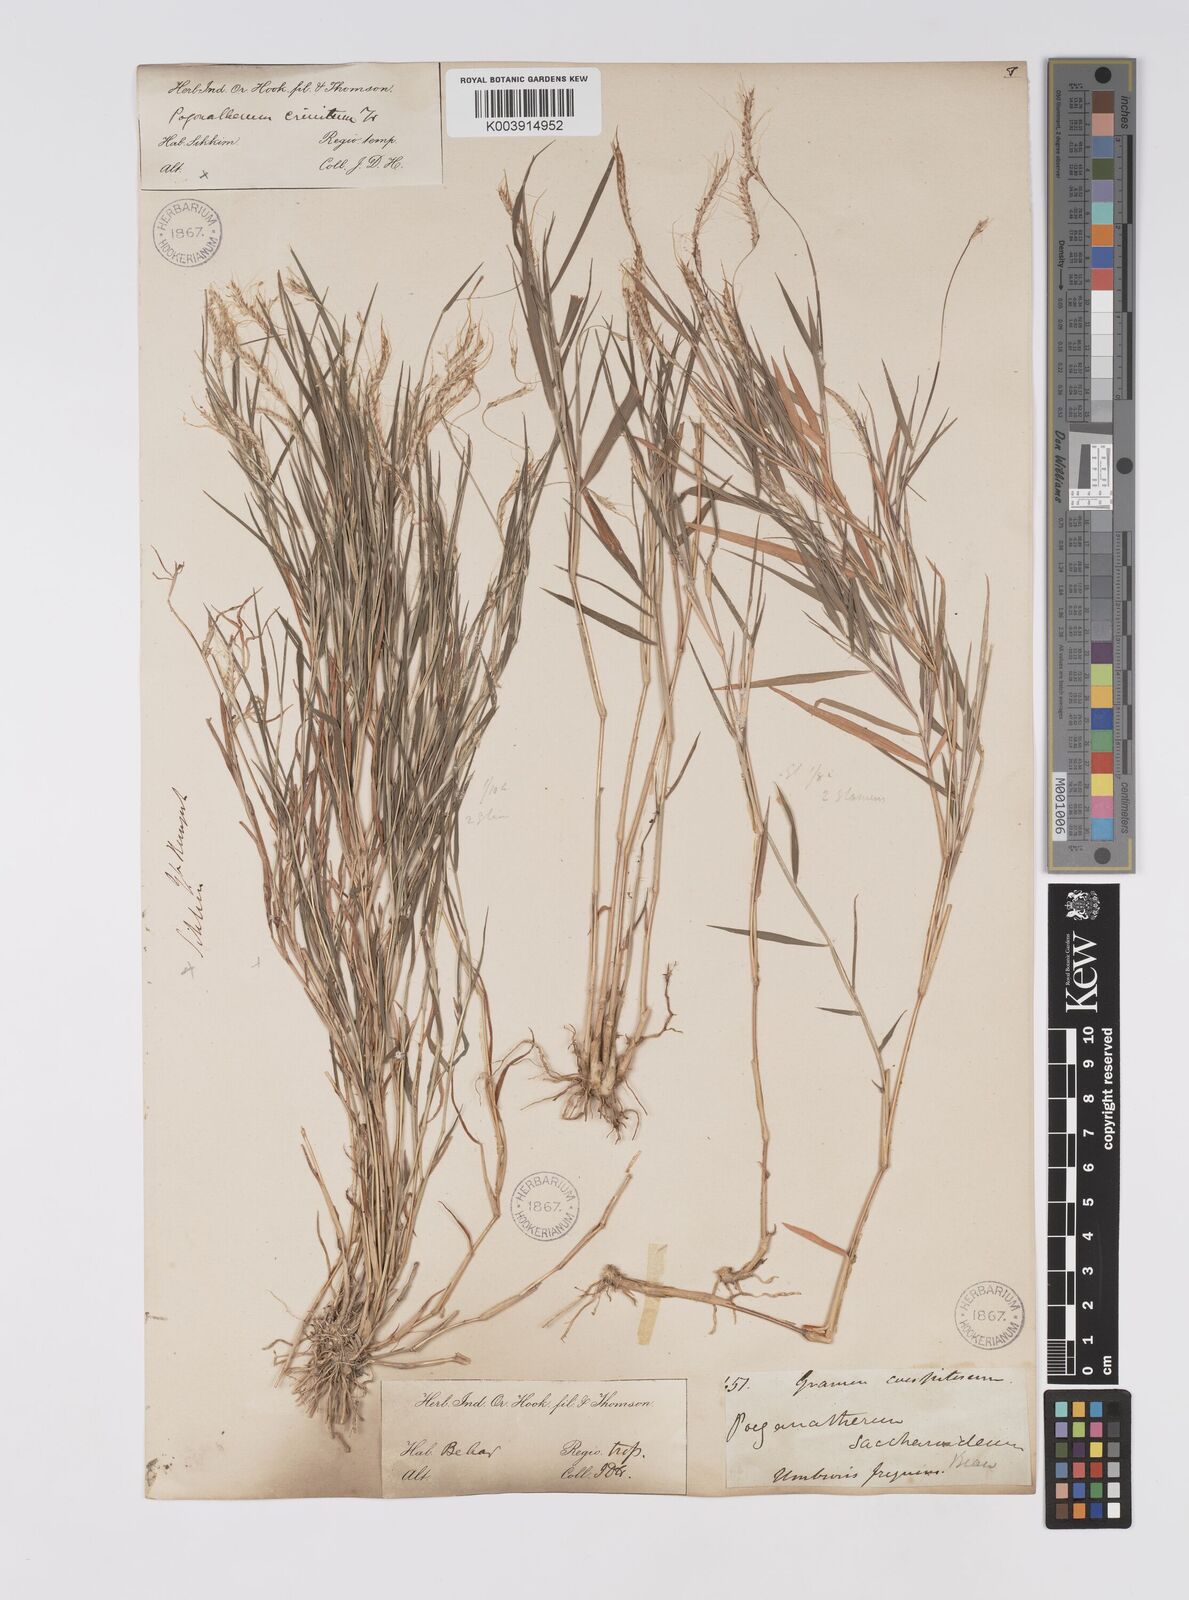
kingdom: Plantae
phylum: Tracheophyta
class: Liliopsida
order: Poales
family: Poaceae
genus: Pogonatherum
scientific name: Pogonatherum paniceum
